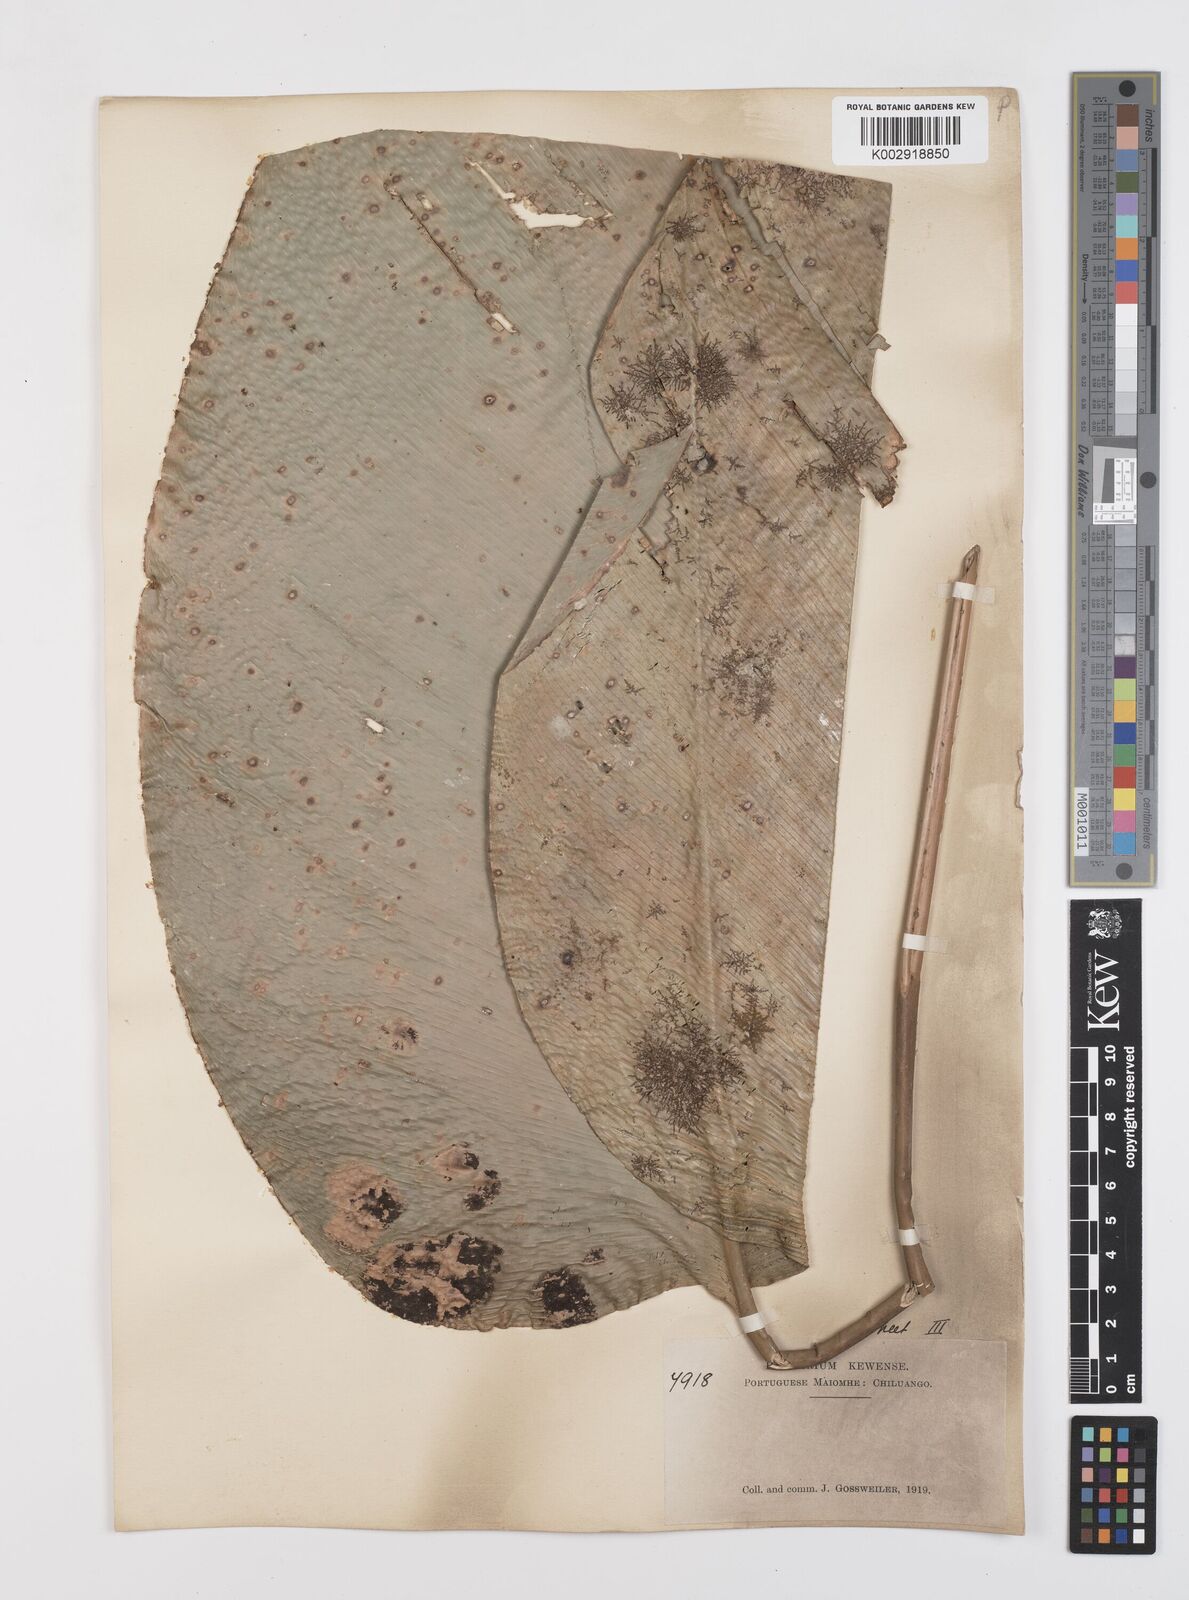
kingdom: Plantae
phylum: Tracheophyta
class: Liliopsida
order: Zingiberales
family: Marantaceae
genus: Thaumatococcus
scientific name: Thaumatococcus daniellii
